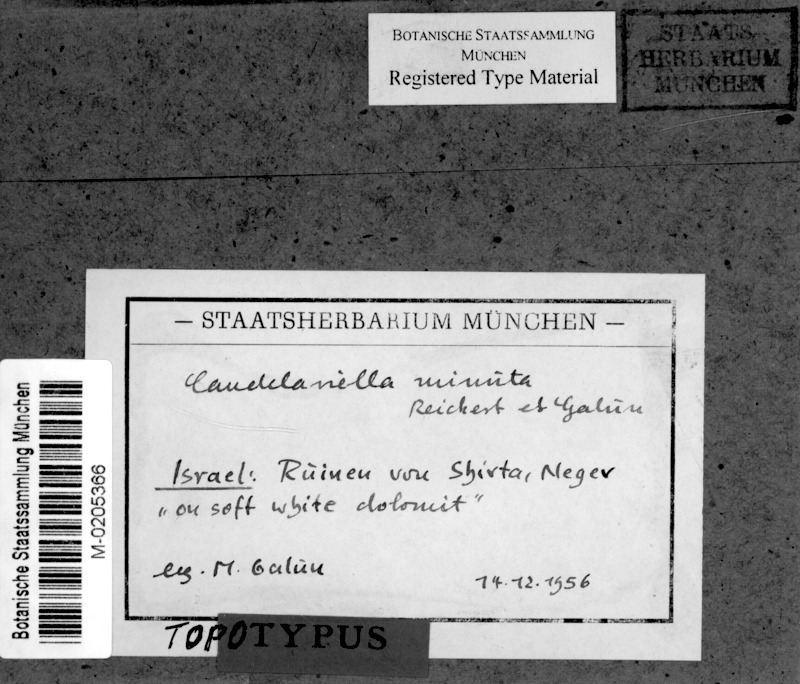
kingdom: Fungi
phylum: Ascomycota
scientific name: Ascomycota
